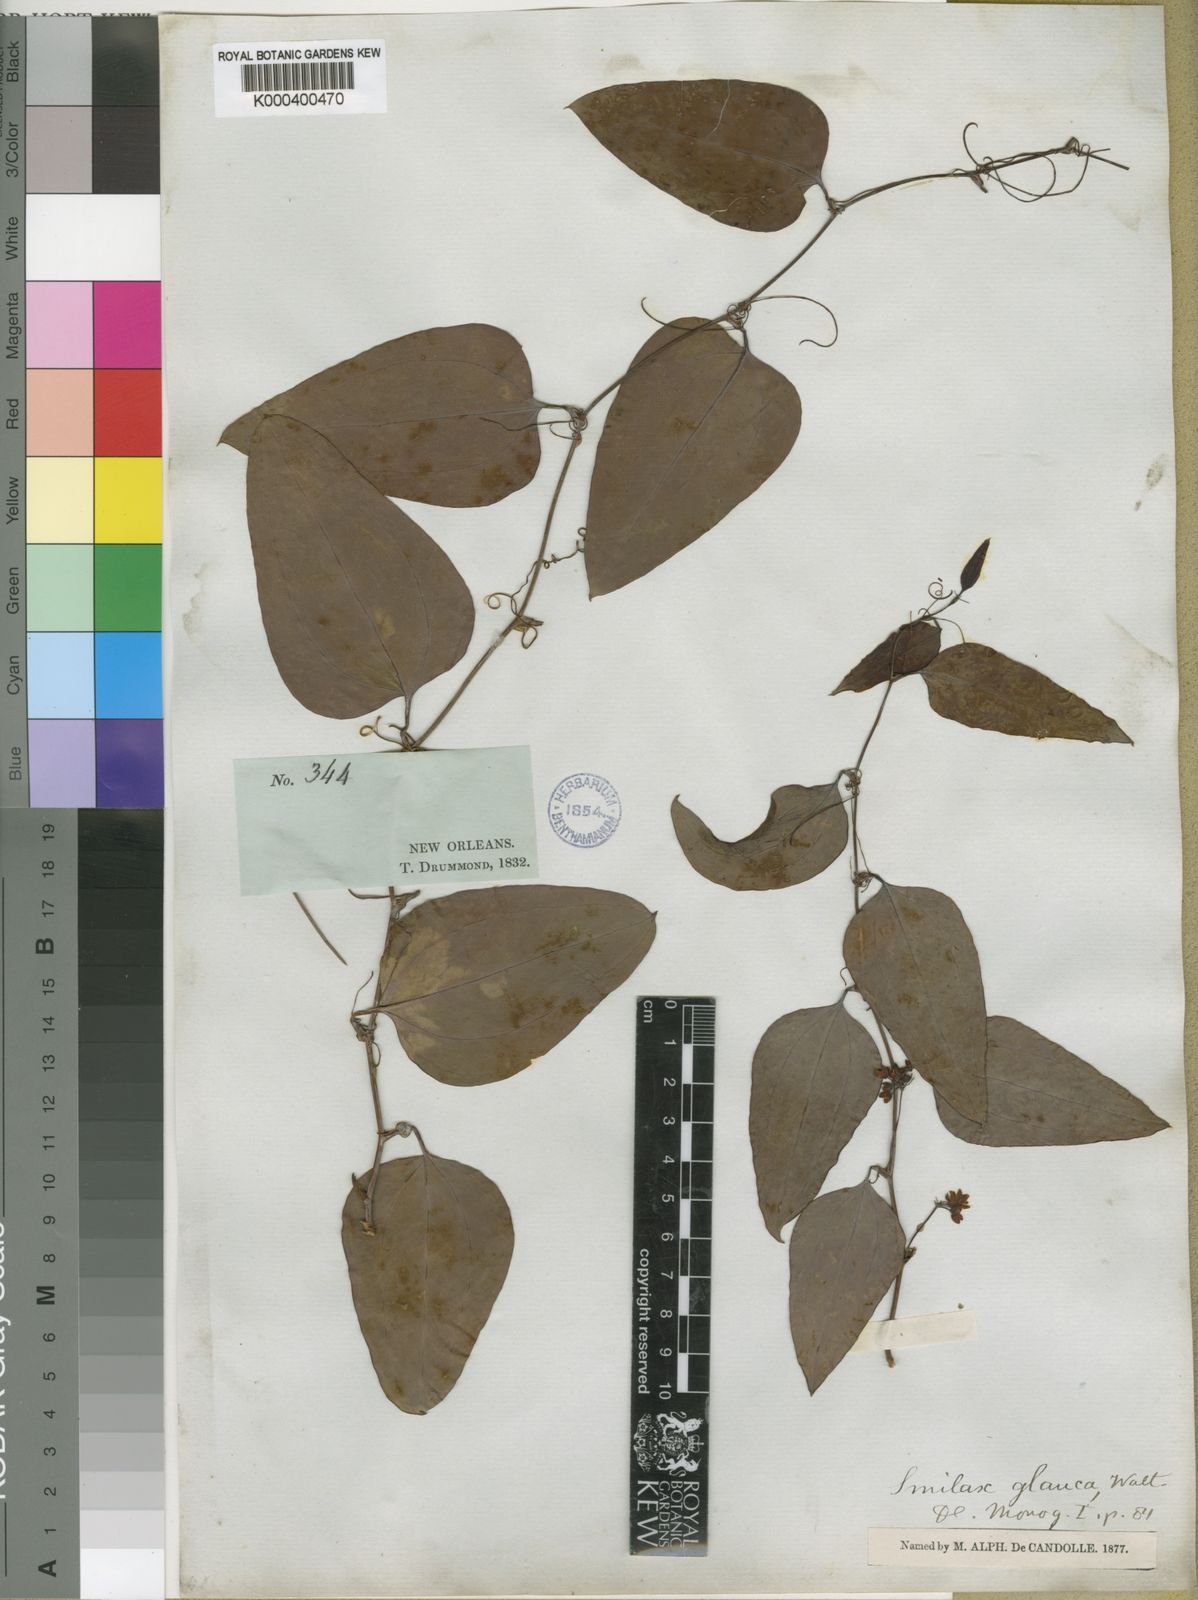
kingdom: Plantae
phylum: Tracheophyta
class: Liliopsida
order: Liliales
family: Smilacaceae
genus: Smilax
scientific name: Smilax glauca
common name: Cat greenbrier
